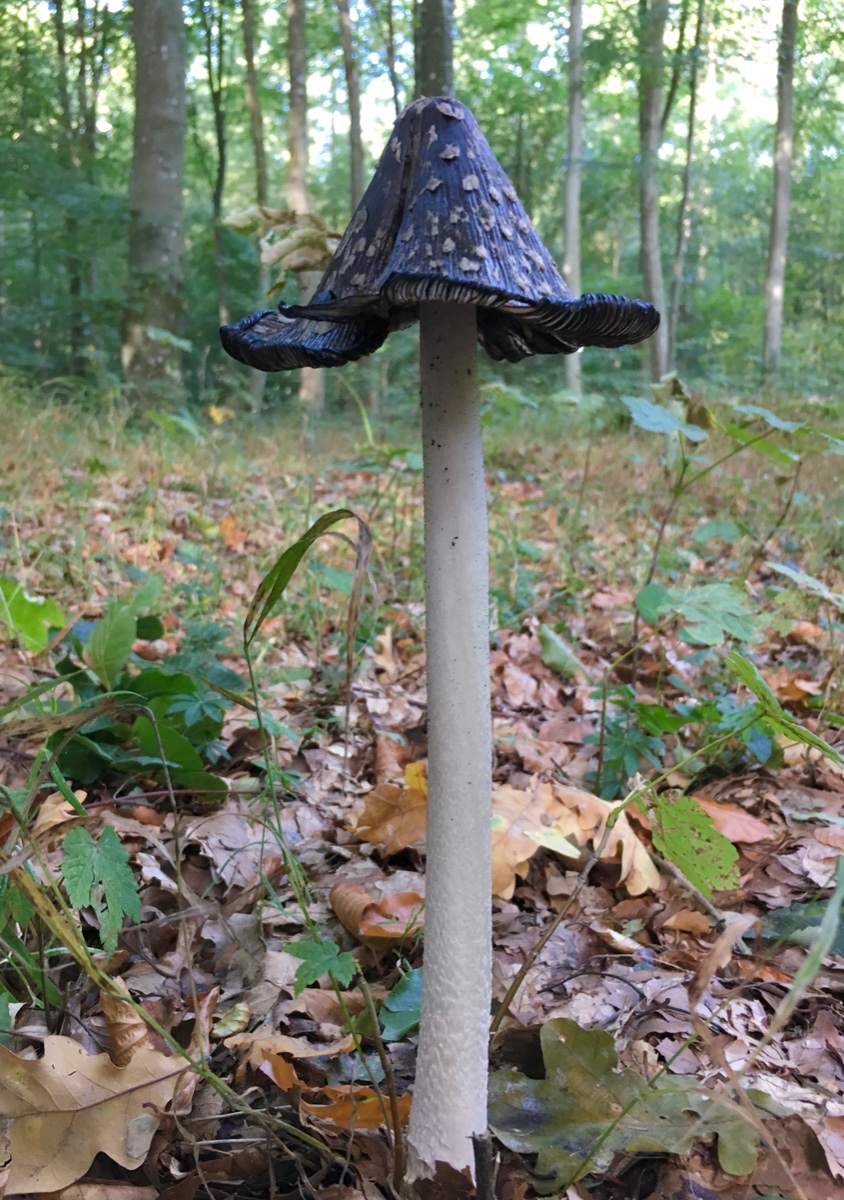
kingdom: Fungi
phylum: Basidiomycota
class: Agaricomycetes
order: Agaricales
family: Psathyrellaceae
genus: Coprinopsis
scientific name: Coprinopsis picacea
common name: skade-blækhat
